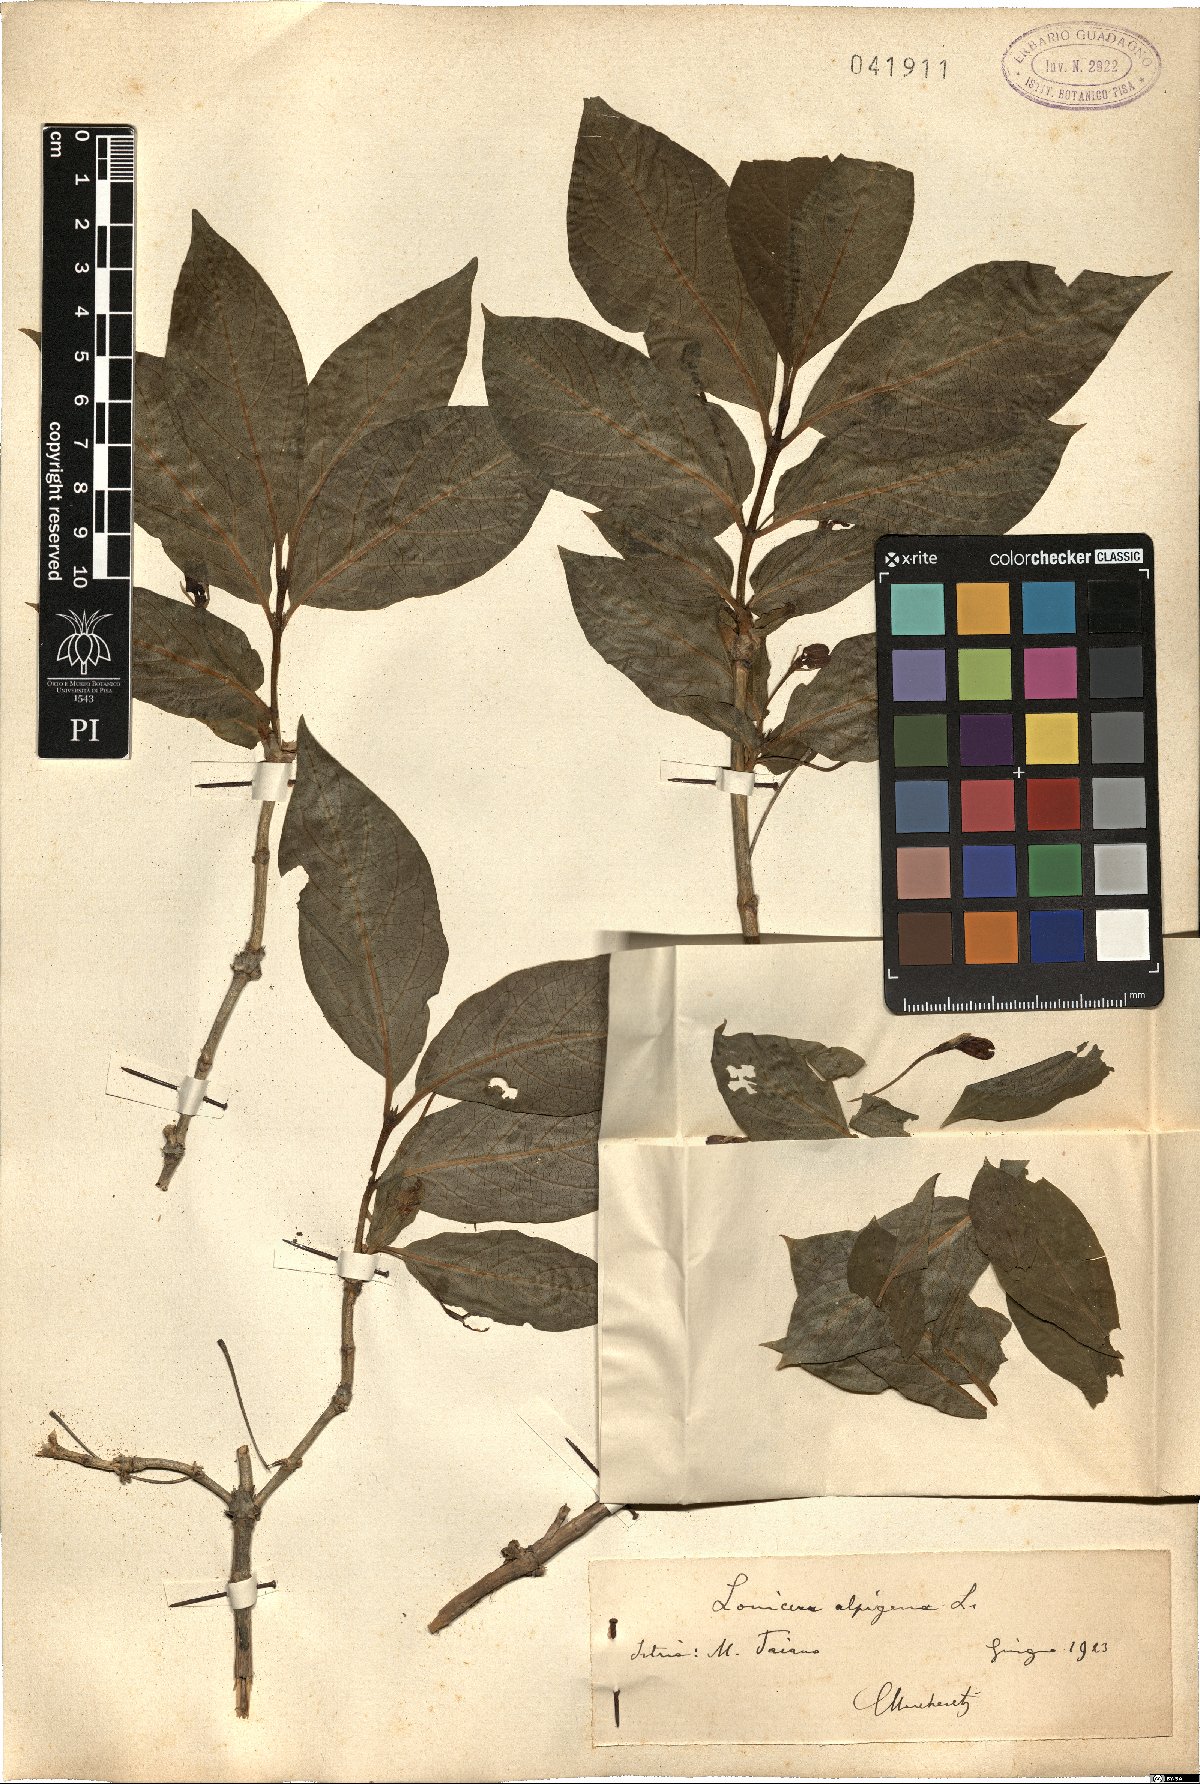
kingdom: Plantae
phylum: Tracheophyta
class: Magnoliopsida
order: Dipsacales
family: Caprifoliaceae
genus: Lonicera
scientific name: Lonicera alpigena
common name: Alpine honeysuckle
